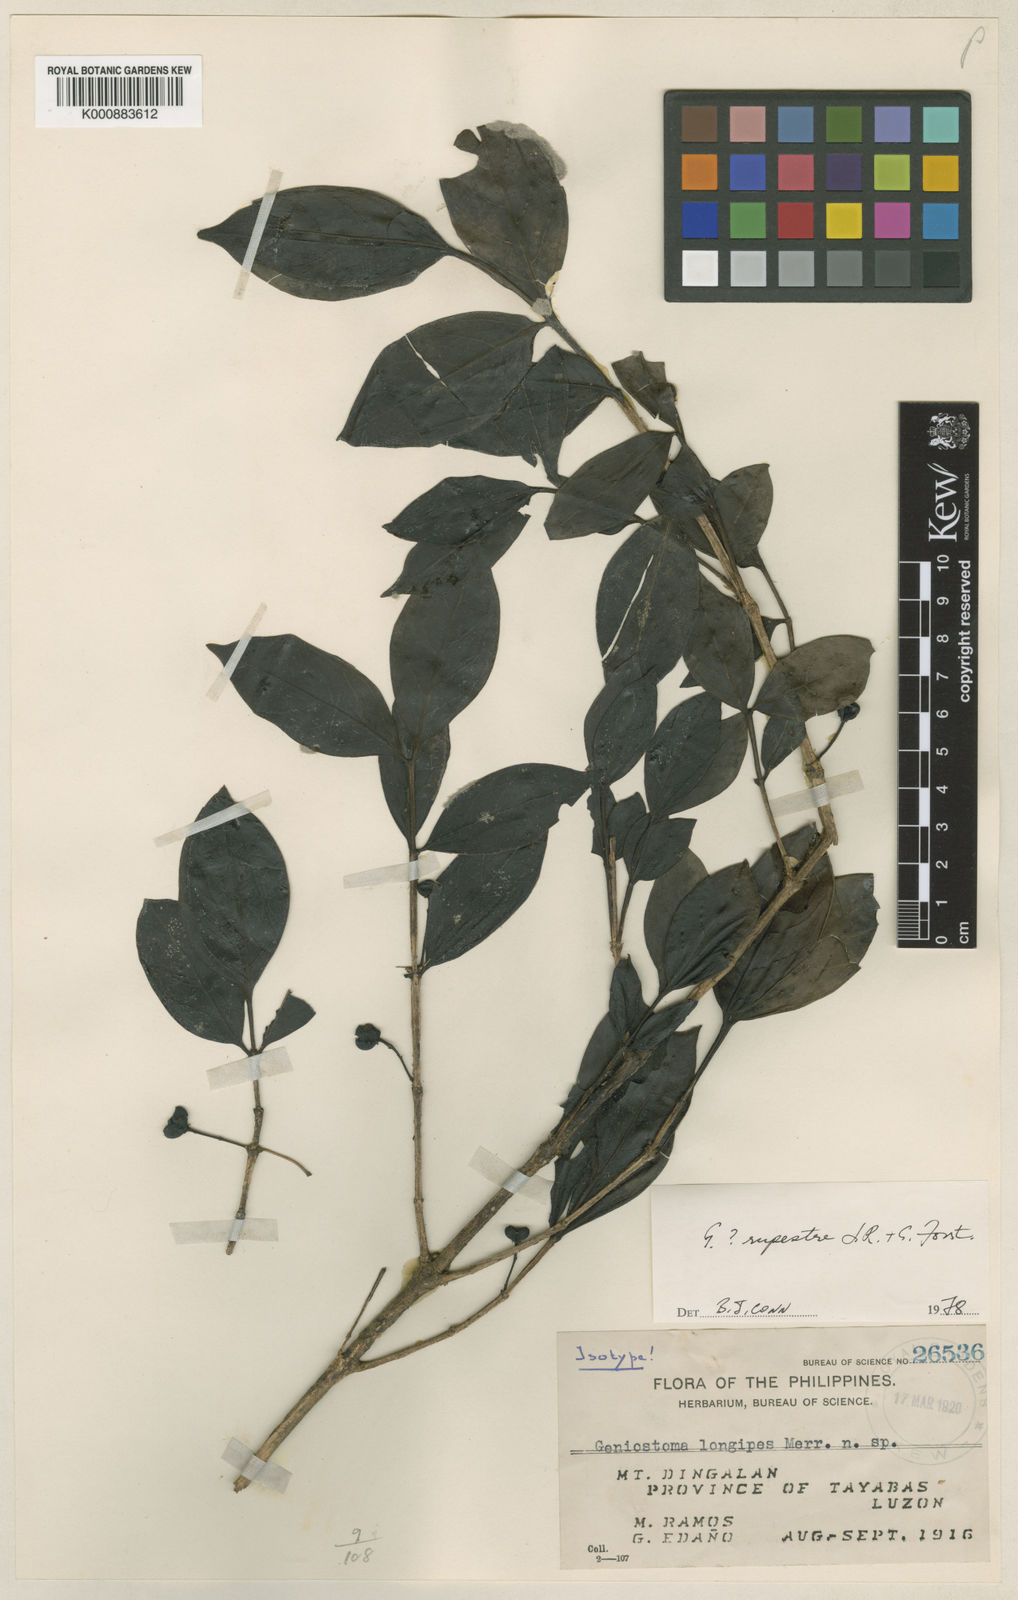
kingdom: Plantae
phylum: Tracheophyta
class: Magnoliopsida
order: Gentianales
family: Loganiaceae
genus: Geniostoma
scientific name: Geniostoma rupestre
